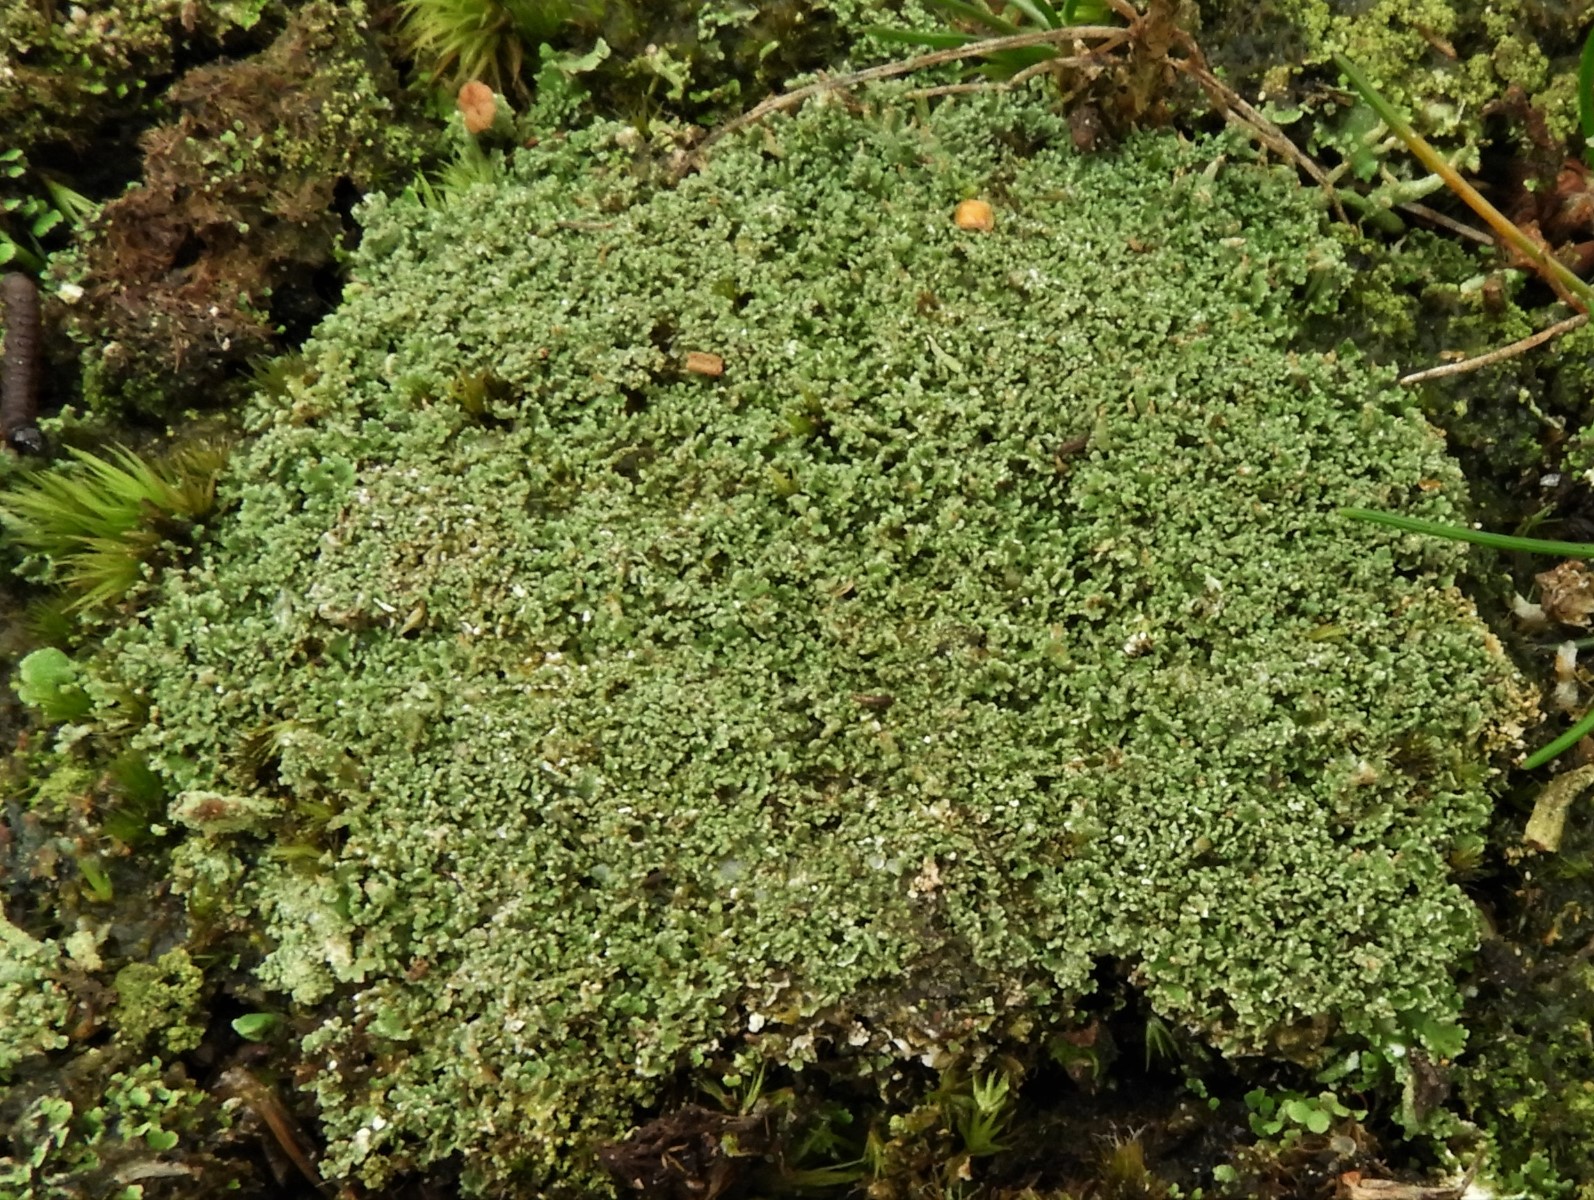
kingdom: Fungi
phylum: Ascomycota
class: Lecanoromycetes
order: Lecanorales
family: Cladoniaceae
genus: Cladonia
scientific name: Cladonia
